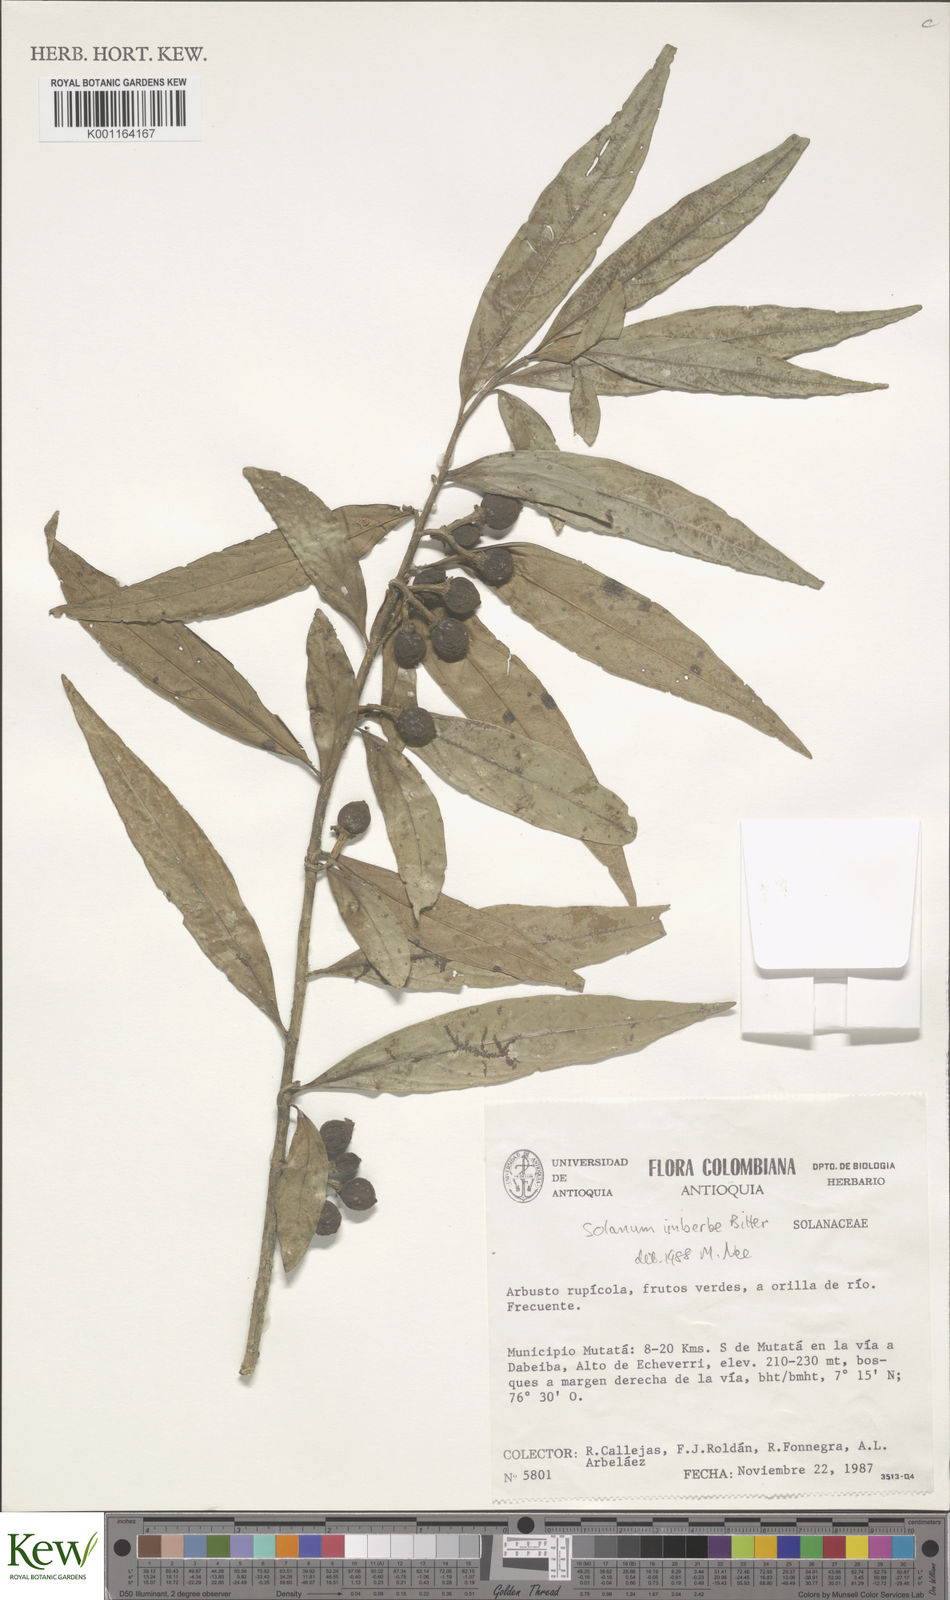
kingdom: Plantae
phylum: Tracheophyta
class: Magnoliopsida
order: Solanales
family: Solanaceae
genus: Solanum
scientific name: Solanum imberbe
